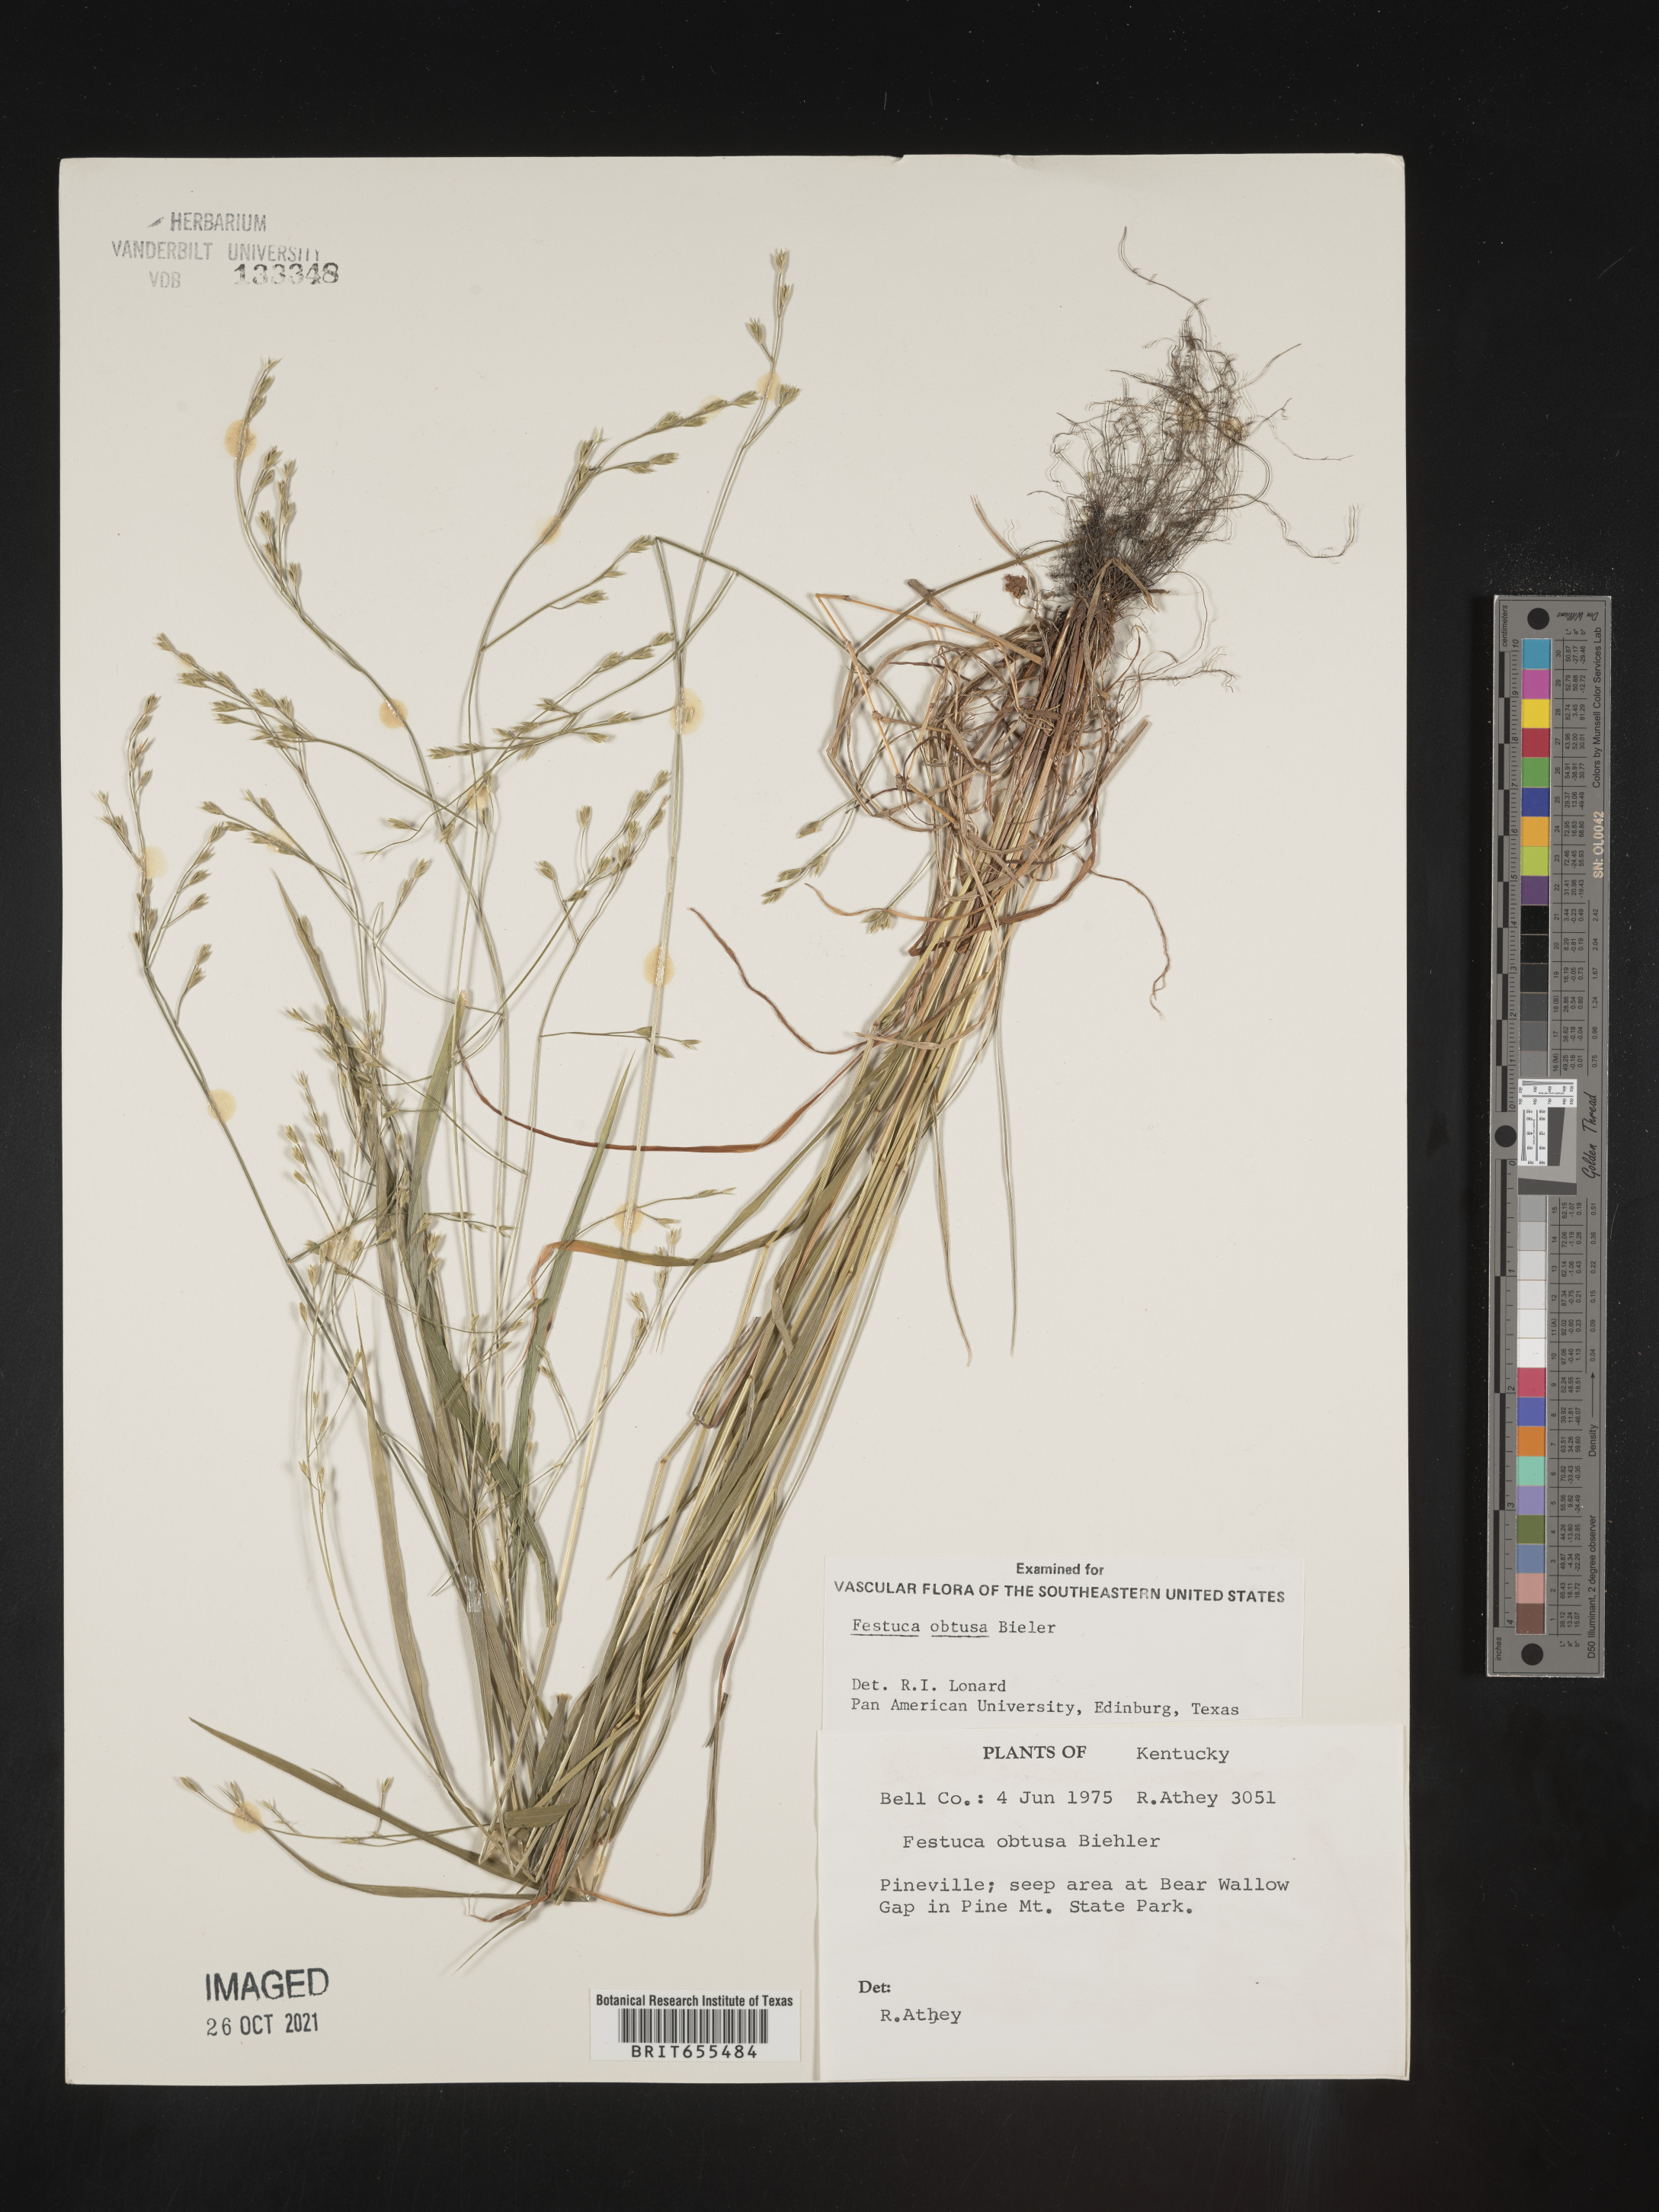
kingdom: Plantae
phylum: Tracheophyta
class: Liliopsida
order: Poales
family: Poaceae
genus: Festuca
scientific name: Festuca
